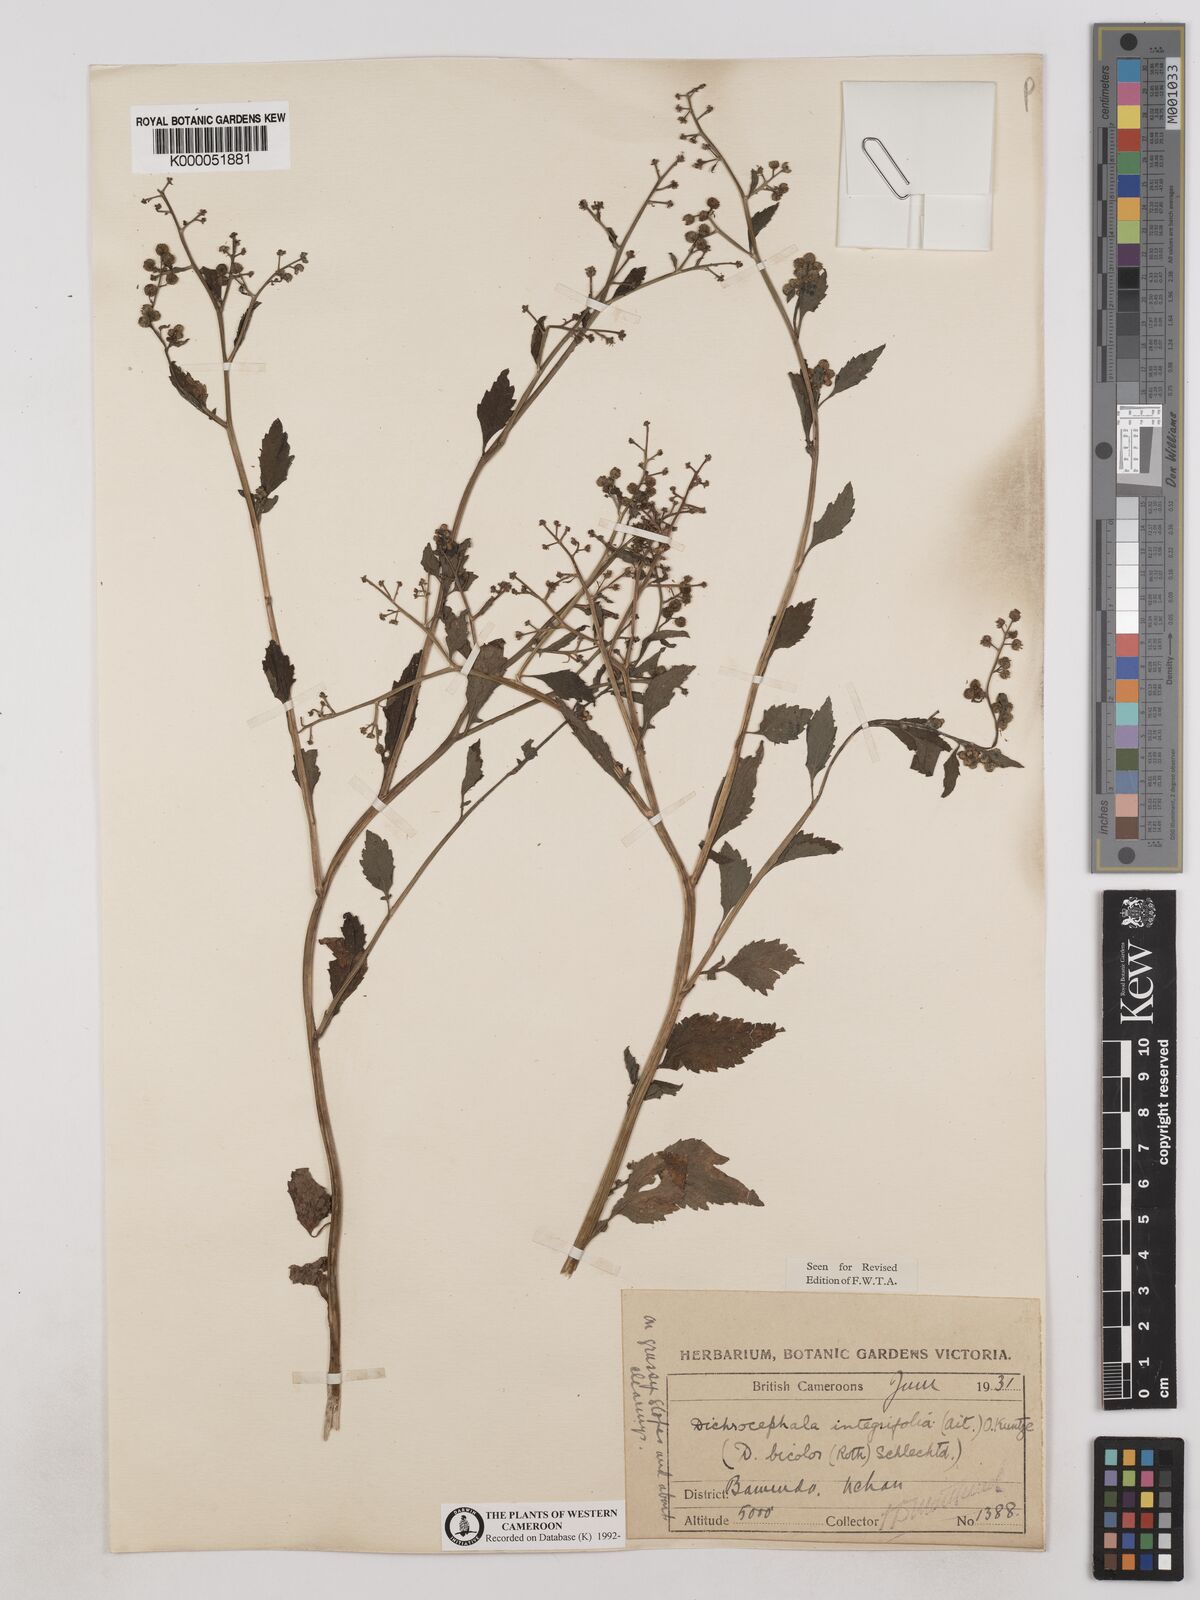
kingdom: Plantae
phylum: Tracheophyta
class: Magnoliopsida
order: Asterales
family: Asteraceae
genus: Dichrocephala
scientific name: Dichrocephala integrifolia
